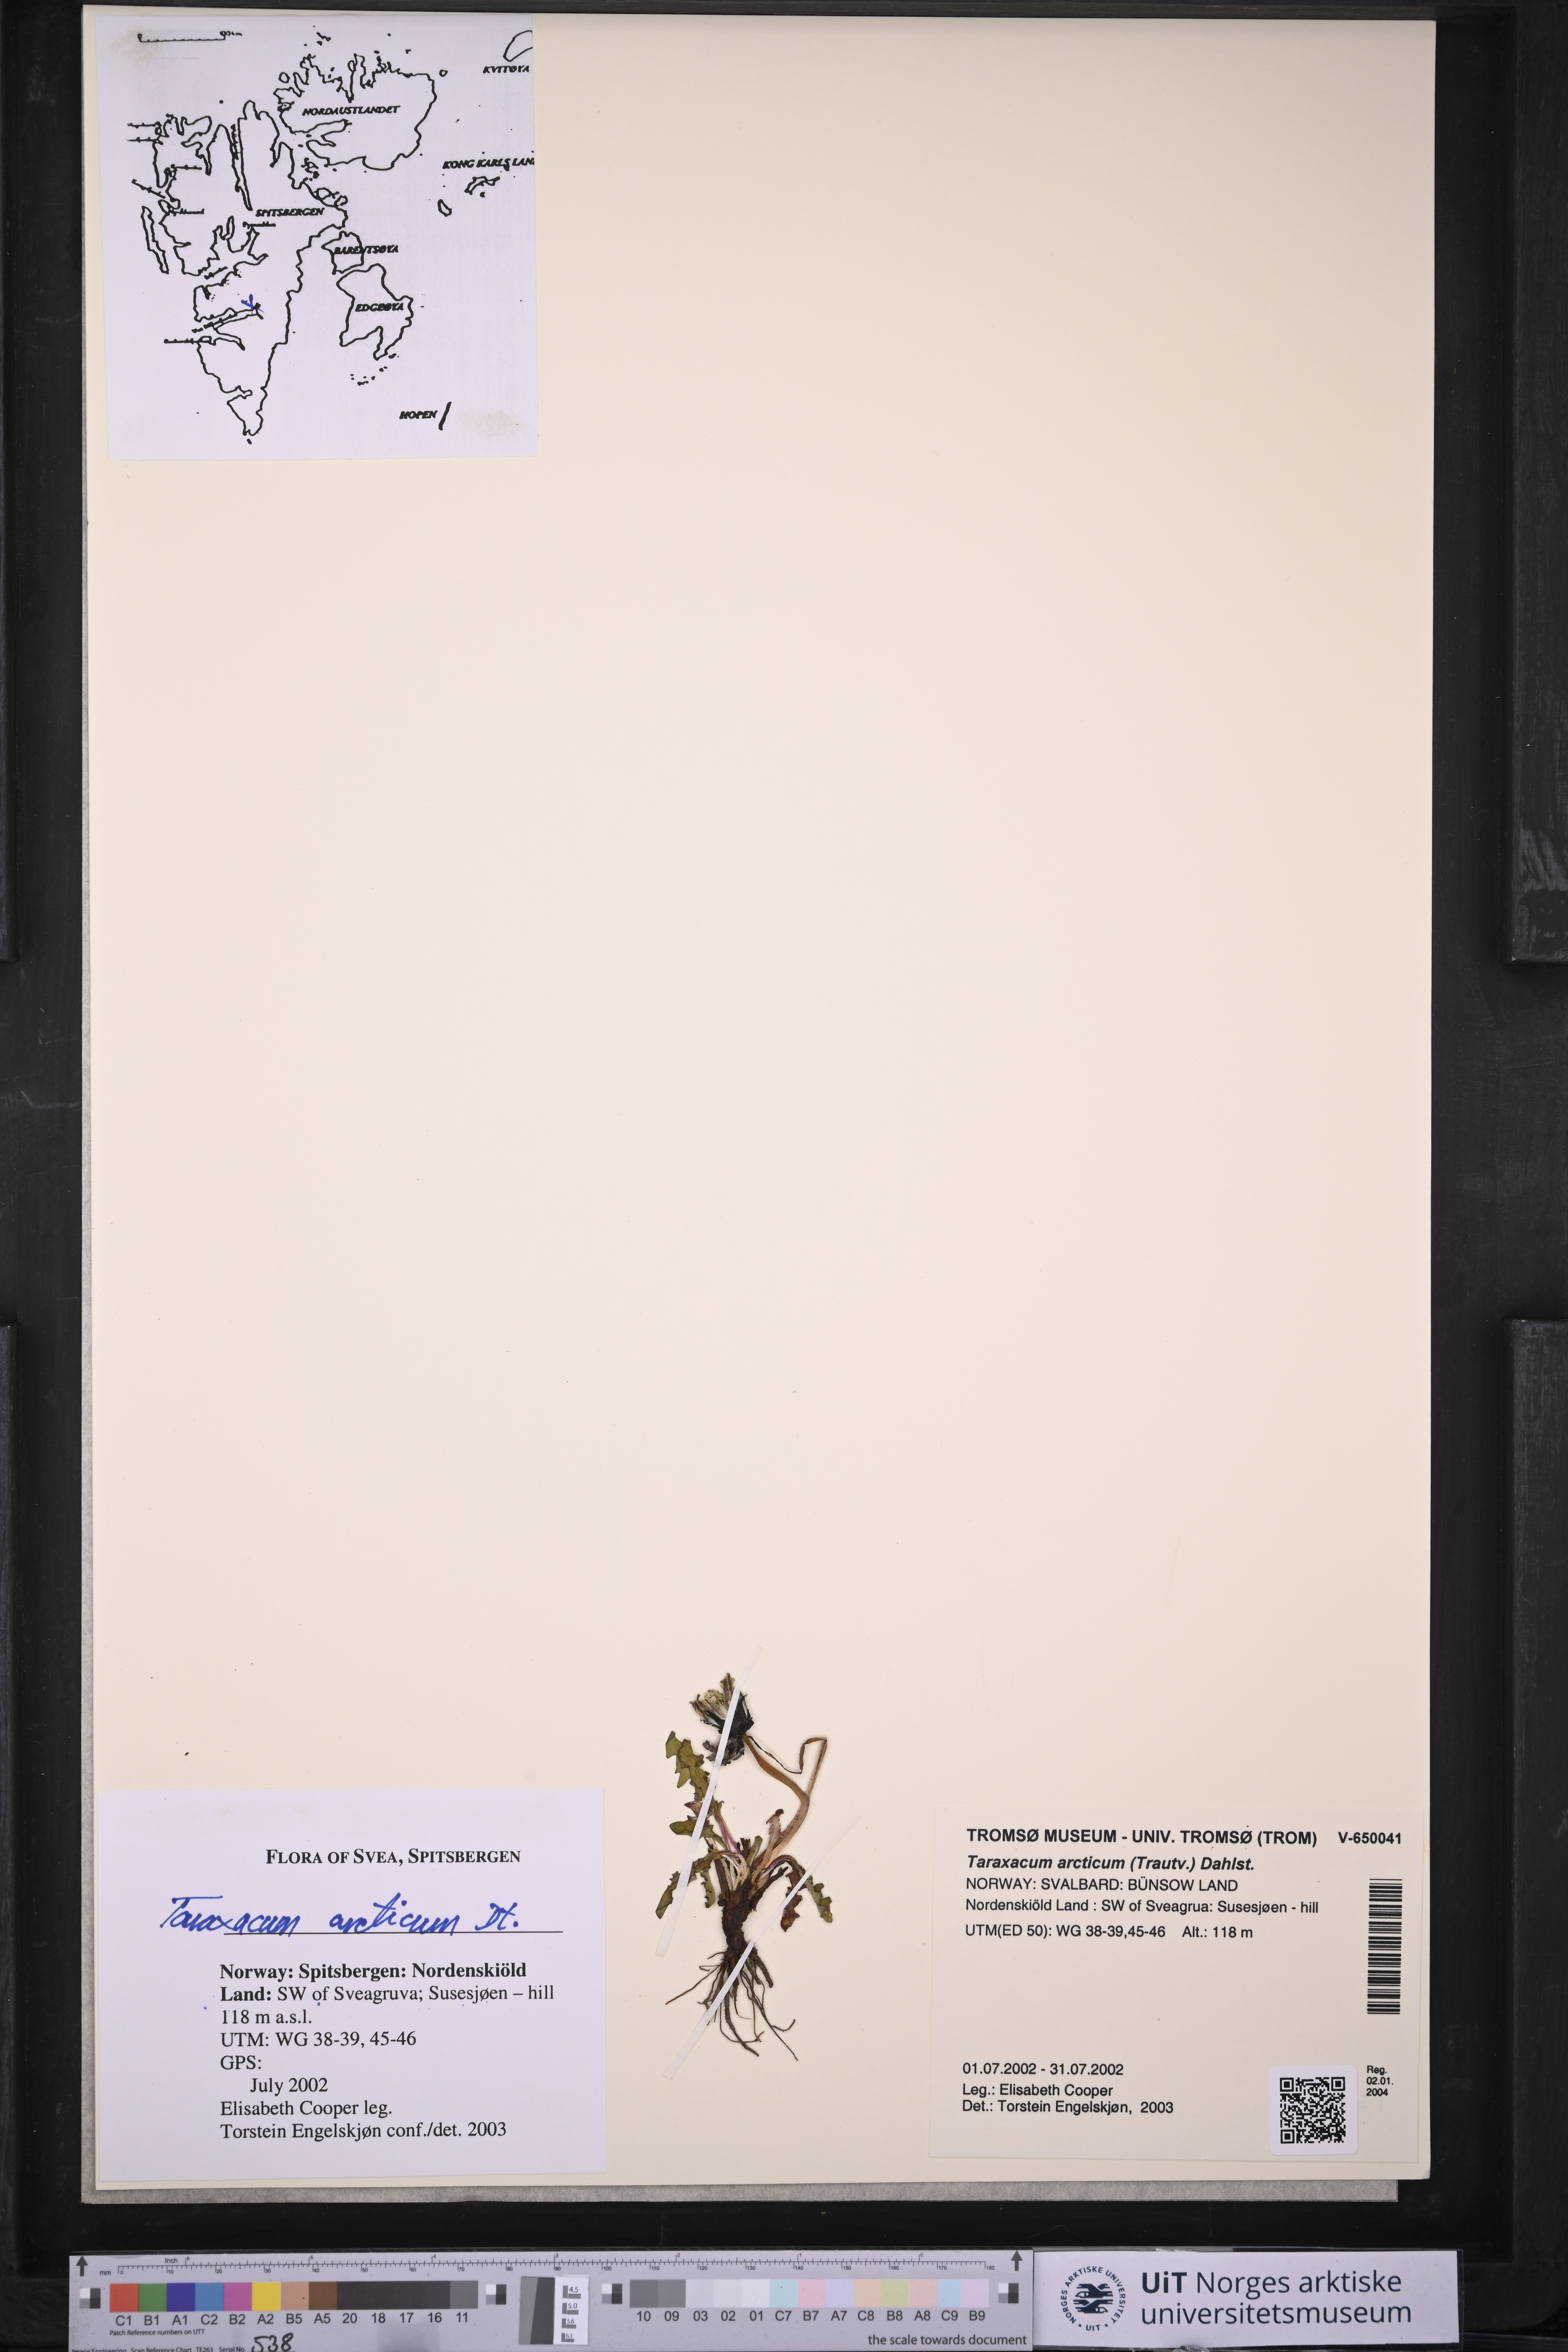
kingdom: Plantae
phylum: Tracheophyta
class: Magnoliopsida
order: Asterales
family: Asteraceae
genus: Taraxacum
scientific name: Taraxacum arcticum
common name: Arctic dandelion
